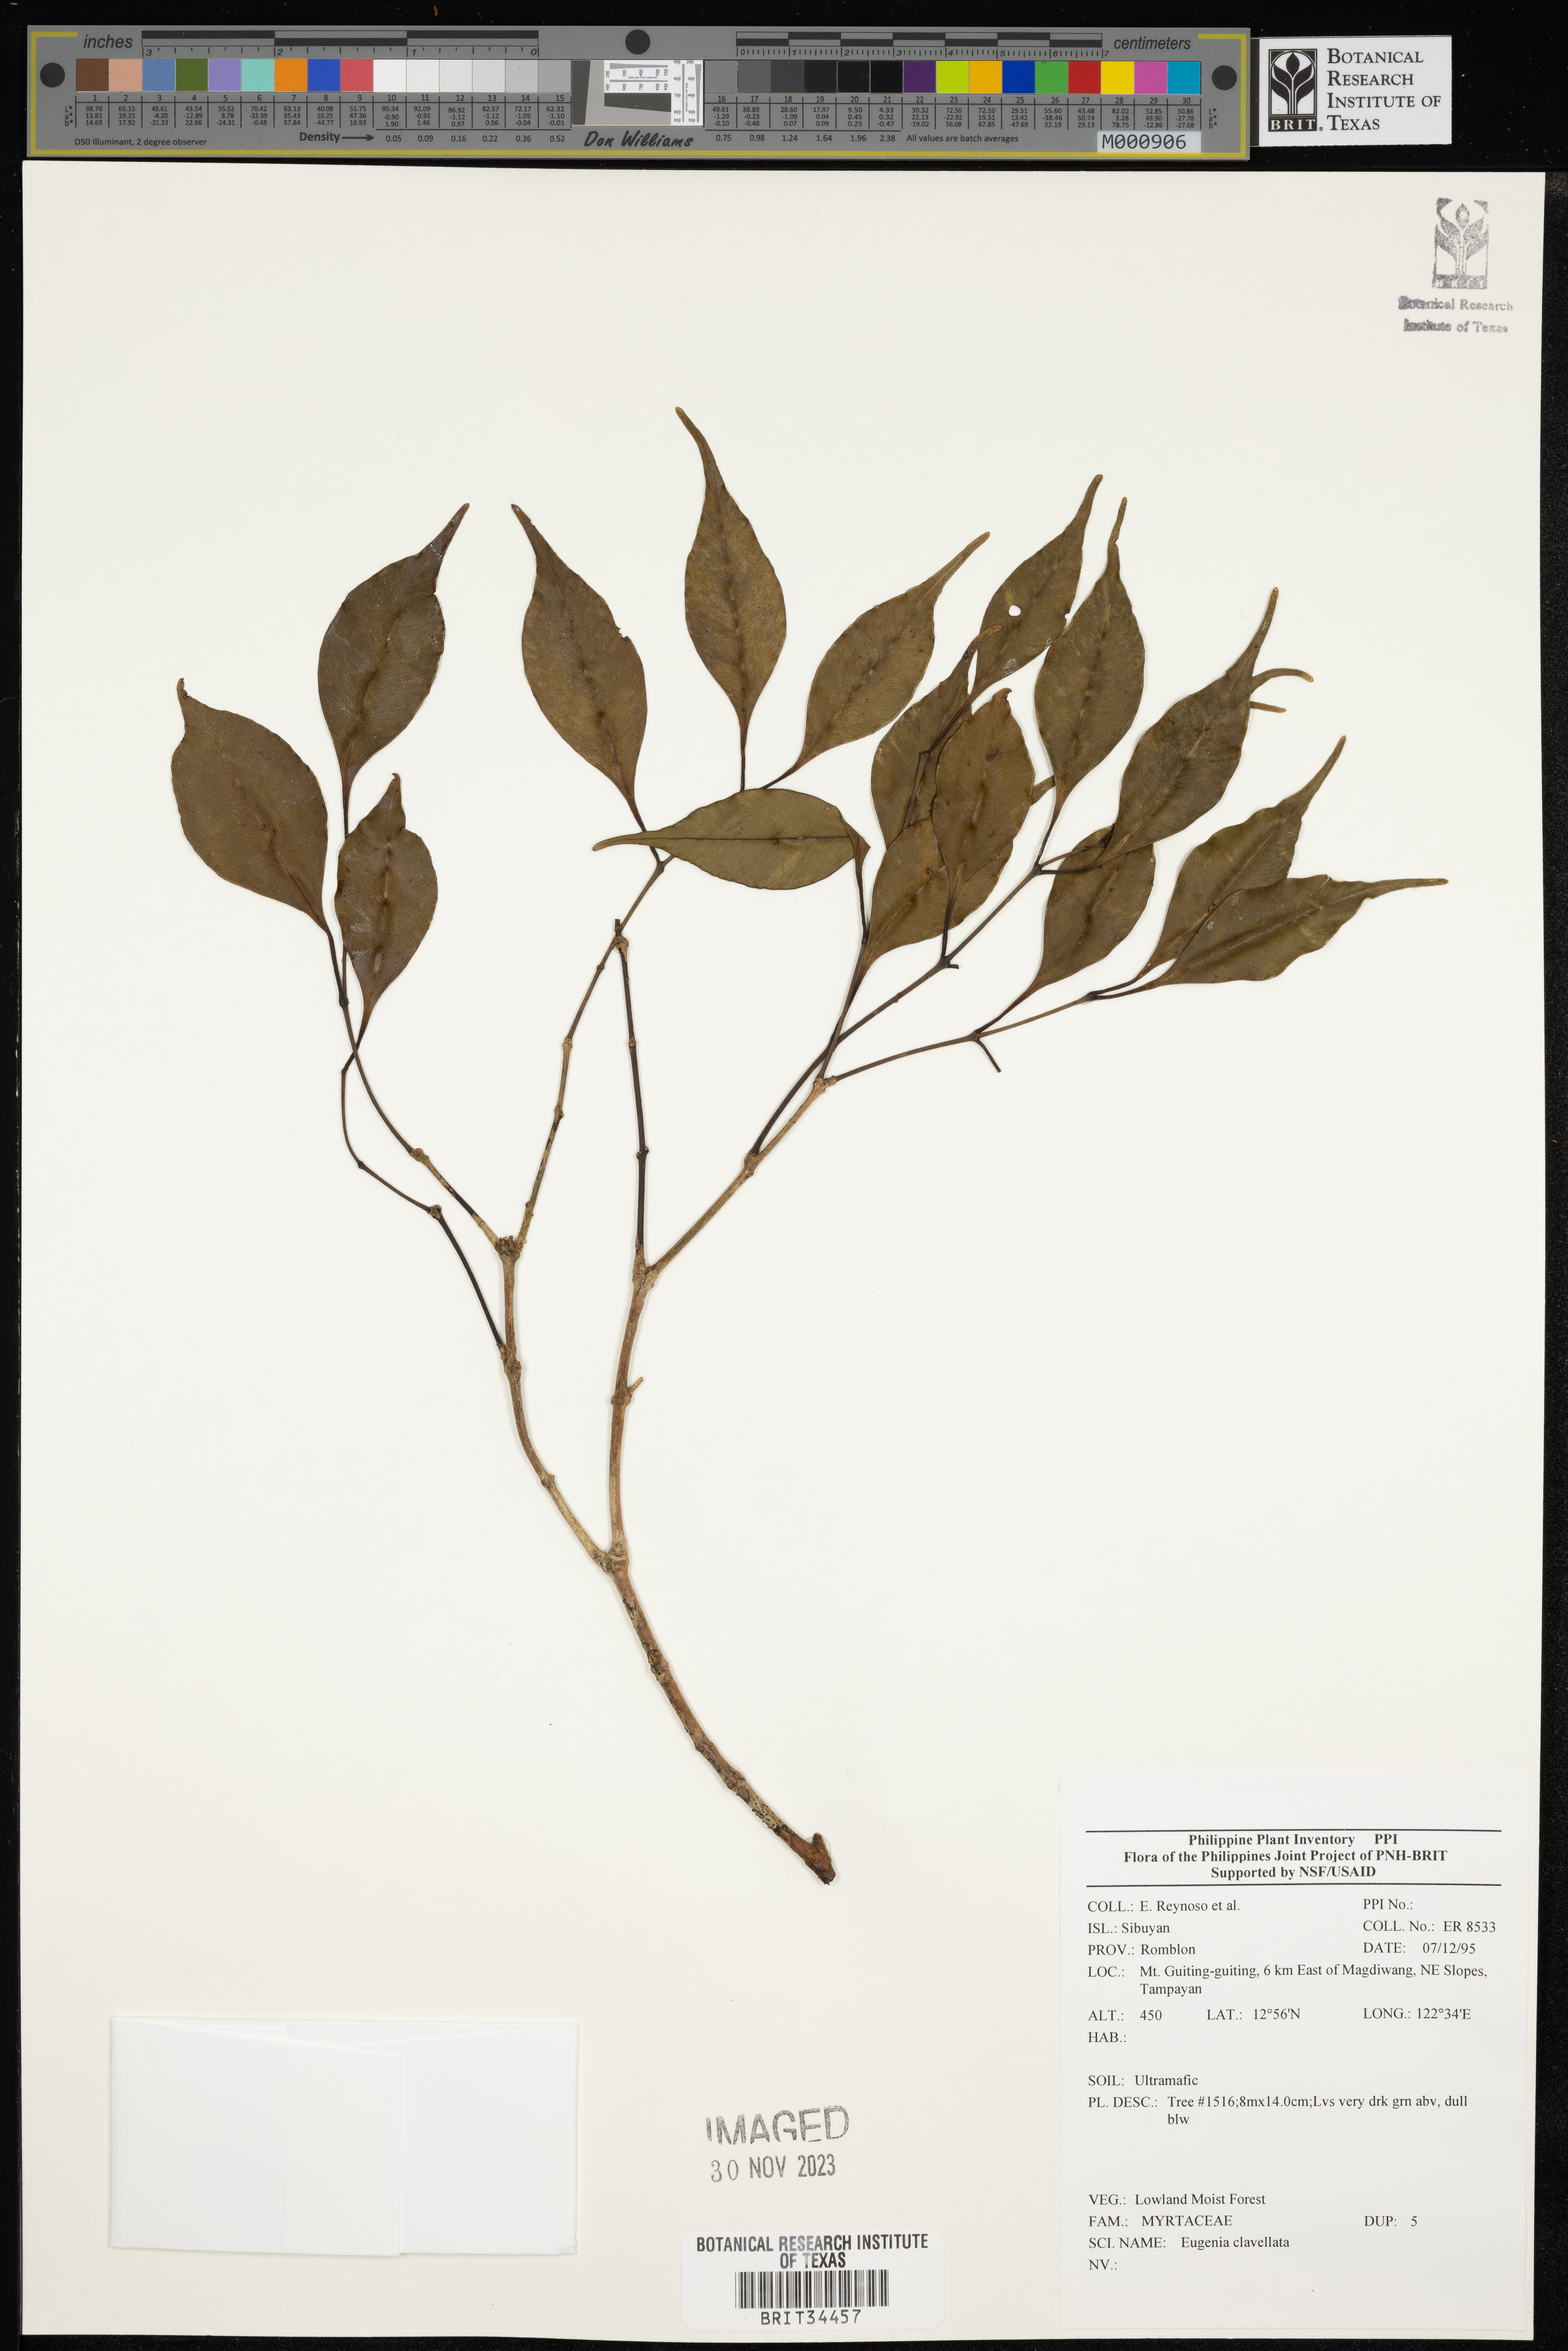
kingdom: Plantae
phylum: Tracheophyta
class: Magnoliopsida
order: Myrtales
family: Myrtaceae
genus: Eugenia
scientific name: Eugenia
